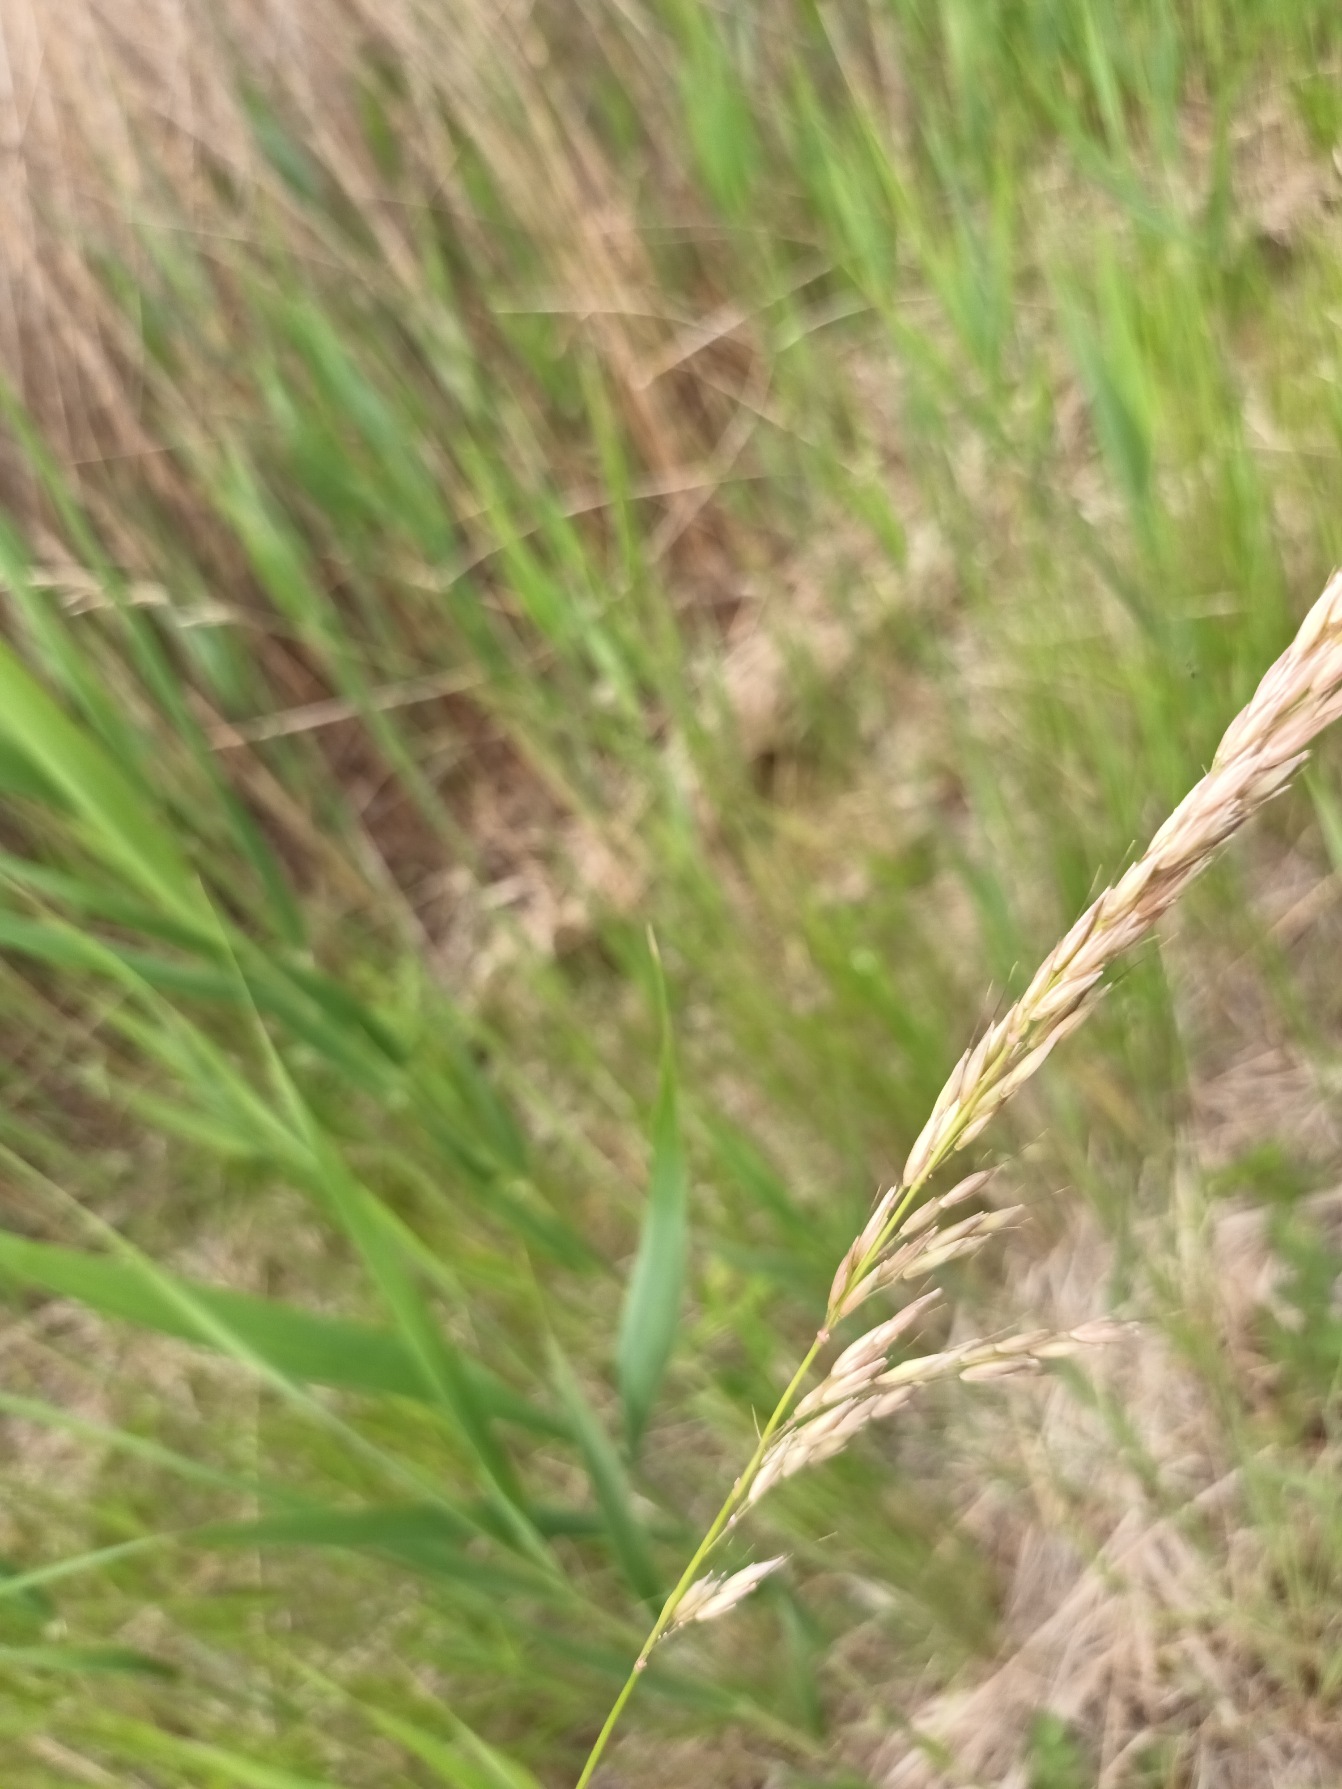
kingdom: Plantae
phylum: Tracheophyta
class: Liliopsida
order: Poales
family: Poaceae
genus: Arrhenatherum
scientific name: Arrhenatherum elatius
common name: Draphavre
